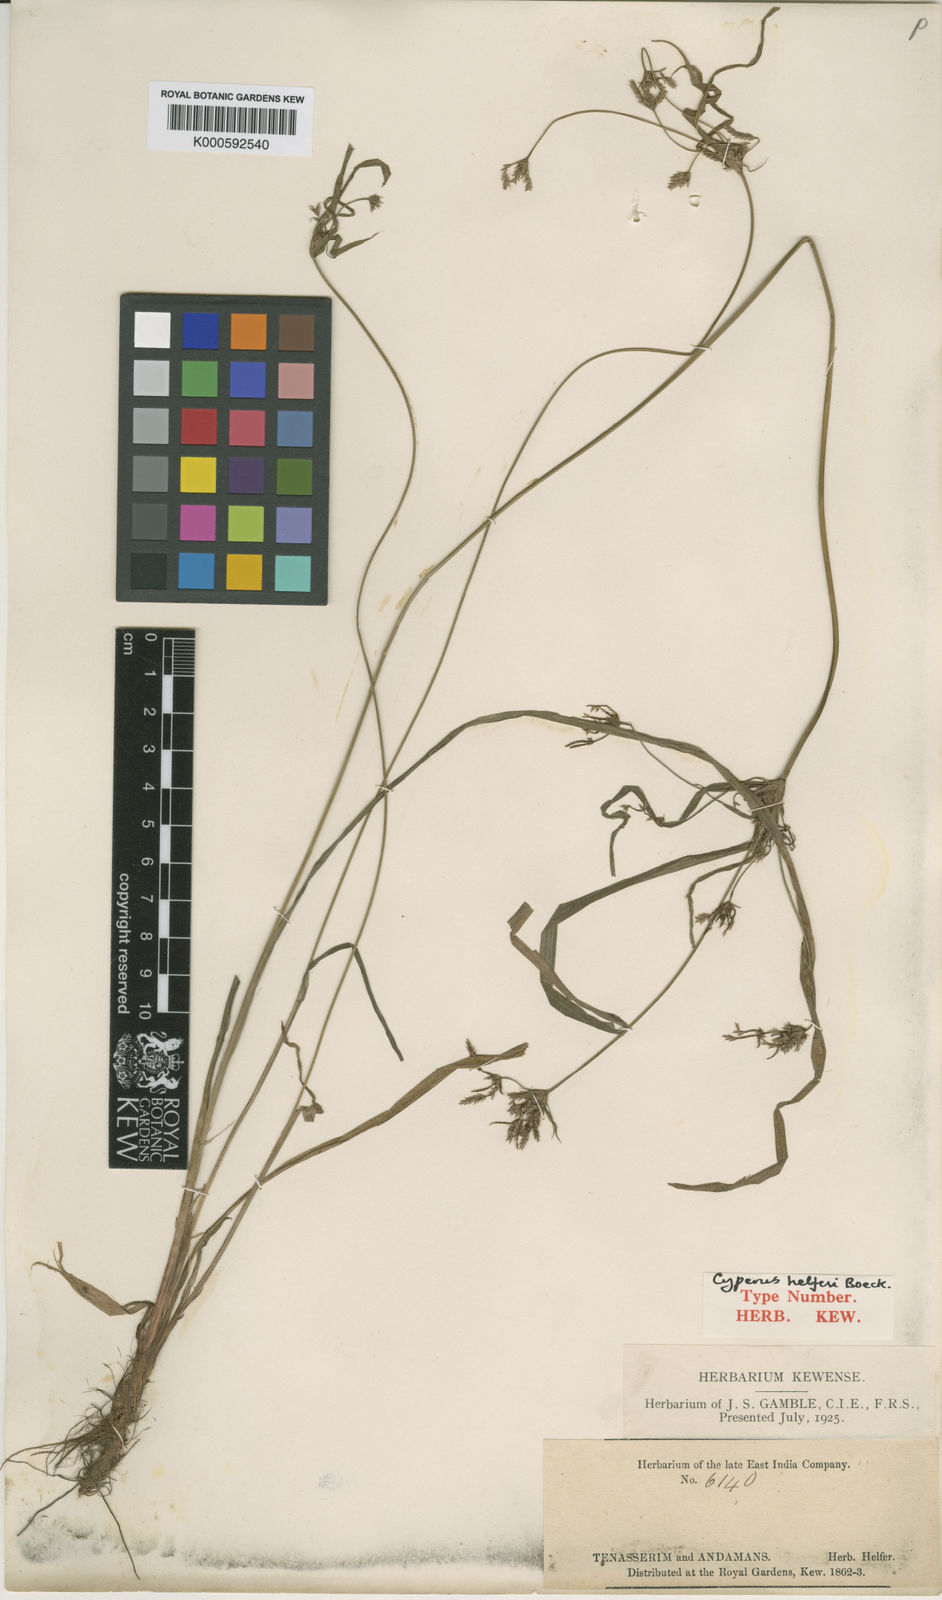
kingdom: Plantae
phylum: Tracheophyta
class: Liliopsida
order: Poales
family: Cyperaceae
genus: Cyperus
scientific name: Cyperus helferi
